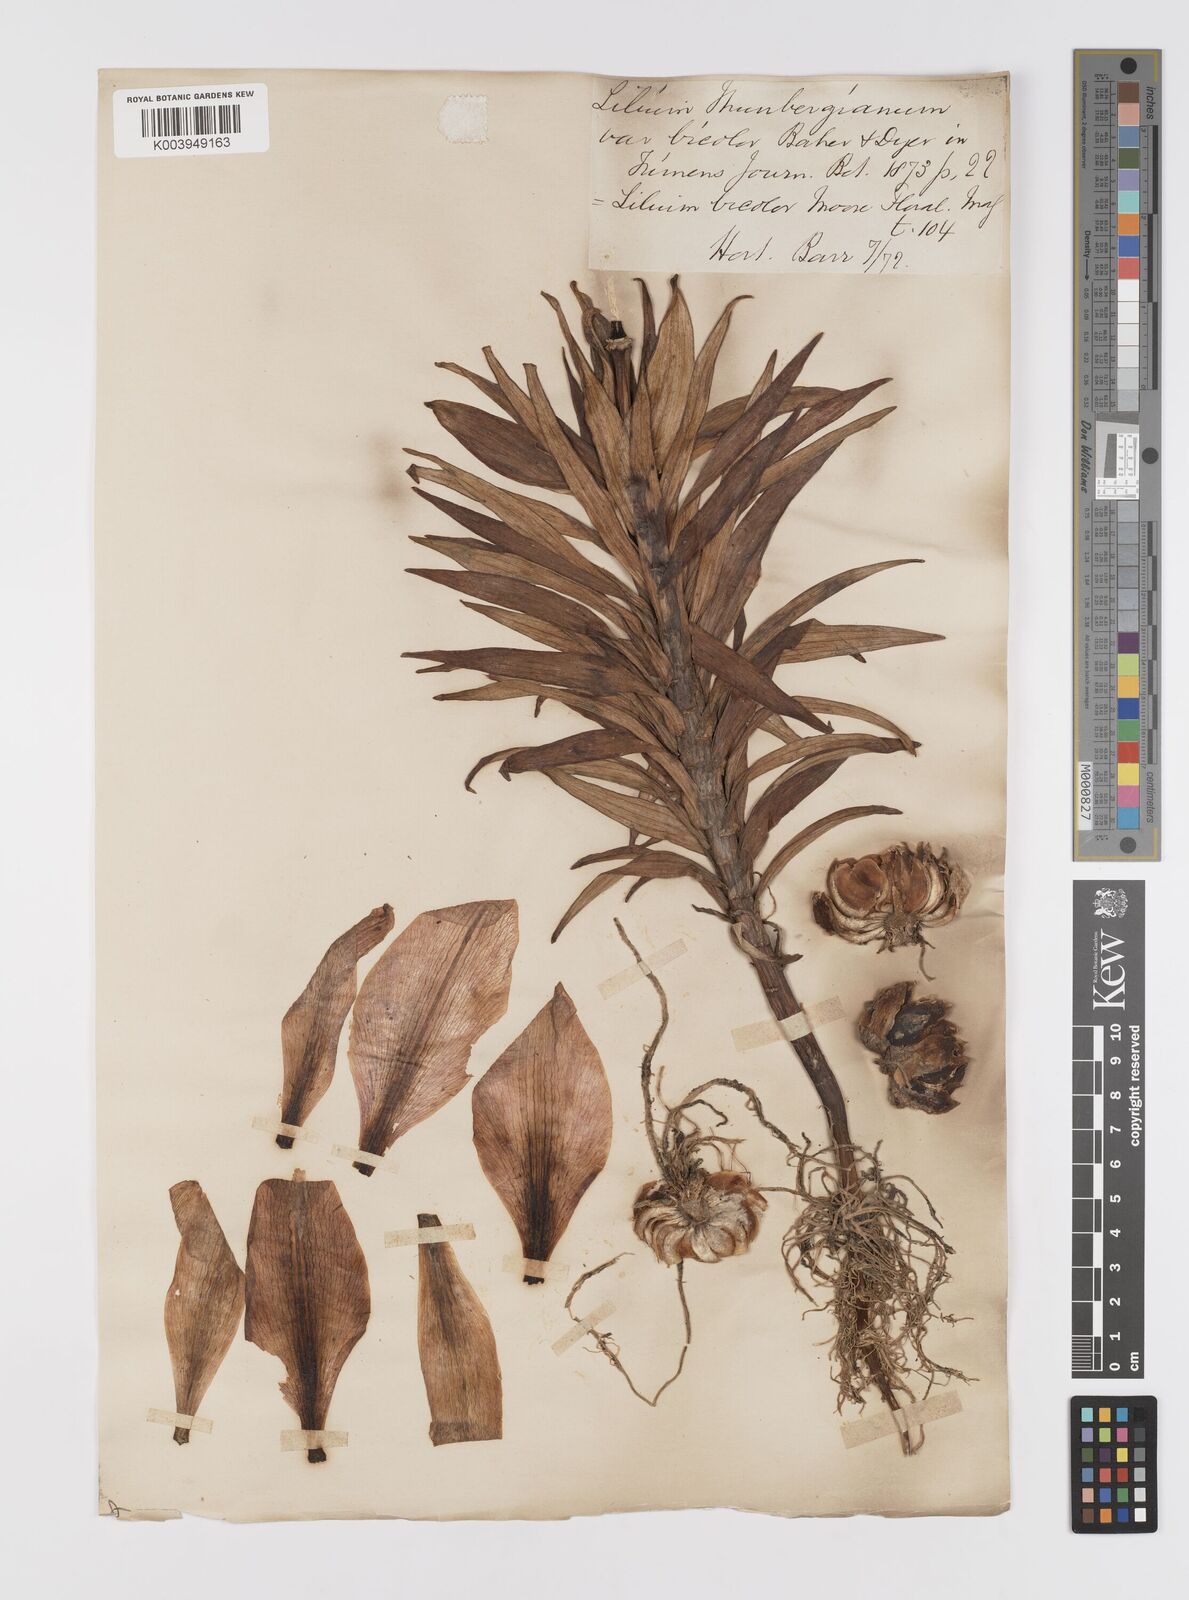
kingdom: Plantae
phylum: Tracheophyta
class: Liliopsida
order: Liliales
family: Liliaceae
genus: Lilium
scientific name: Lilium pensylvanicum
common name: Candlestick lily
